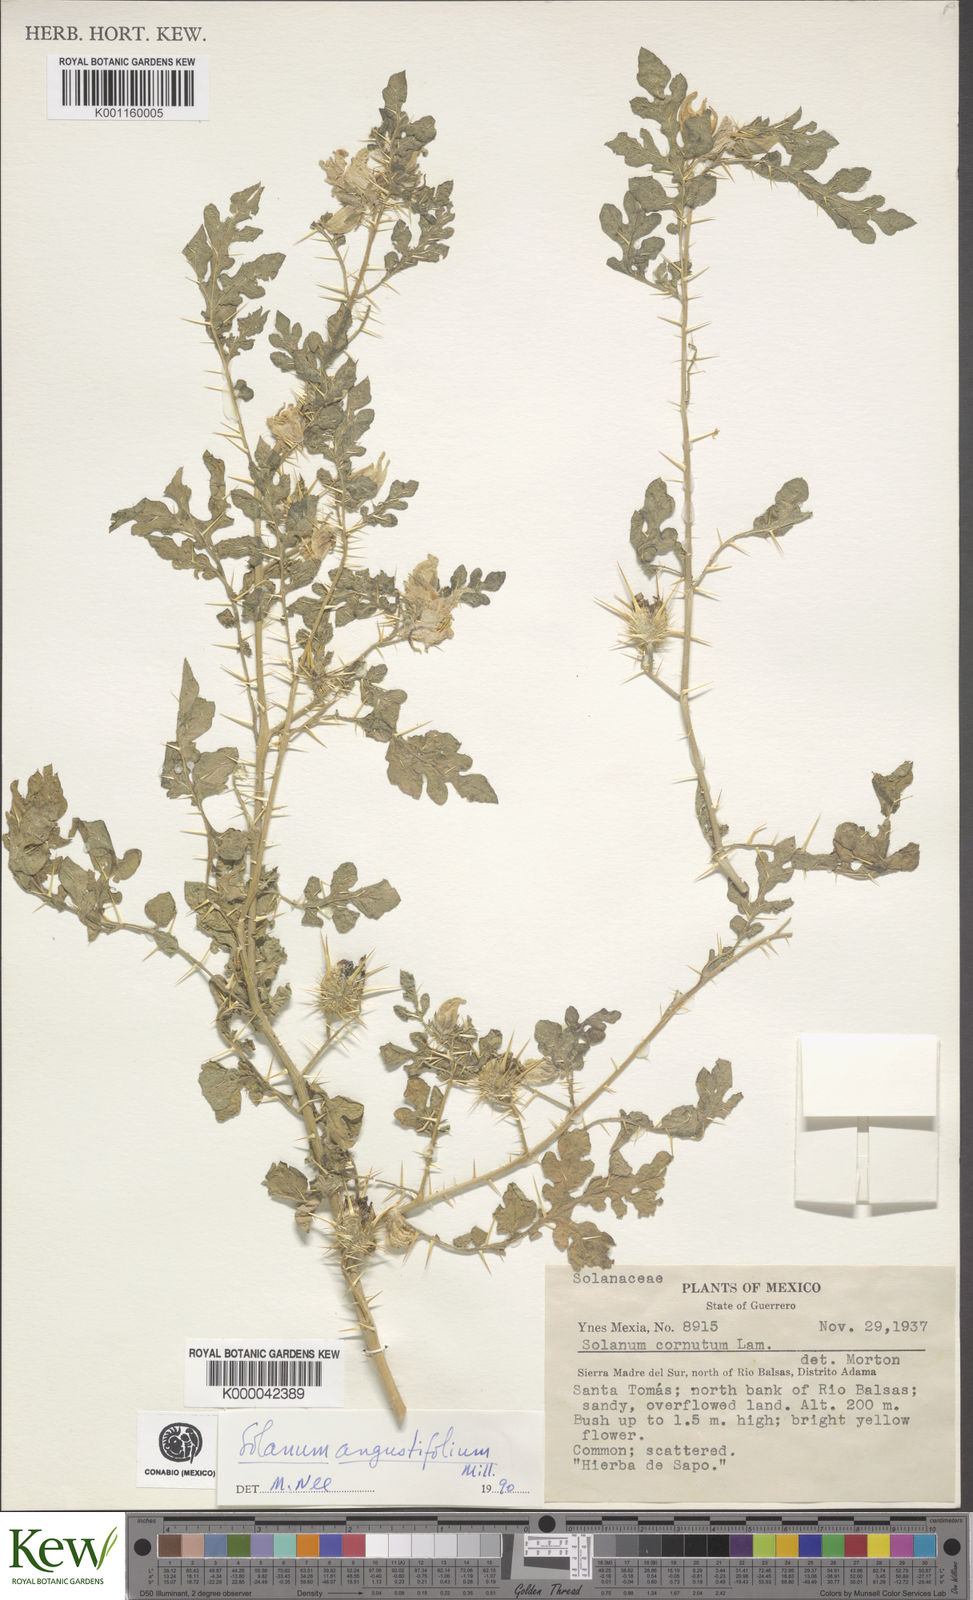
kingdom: Plantae
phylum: Tracheophyta
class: Magnoliopsida
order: Solanales
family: Solanaceae
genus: Solanum
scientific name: Solanum angustifolium
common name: Buffalobur nightshade
